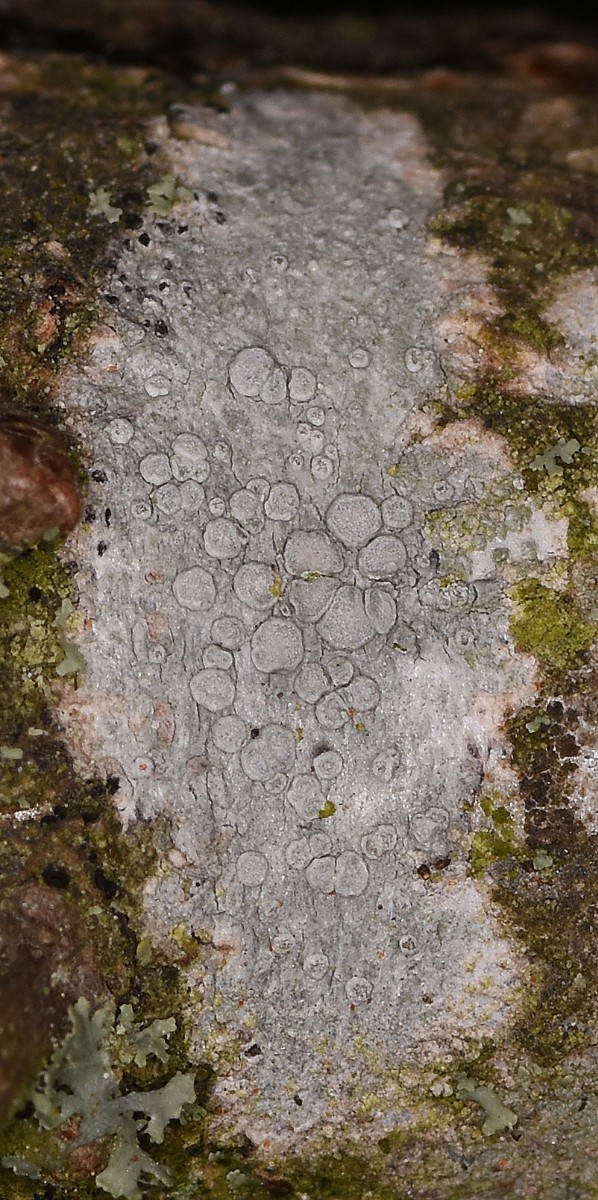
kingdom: Fungi
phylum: Ascomycota
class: Lecanoromycetes
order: Lecanorales
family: Lecanoraceae
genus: Glaucomaria
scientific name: Glaucomaria carpinea
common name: hviddugget kantskivelav
